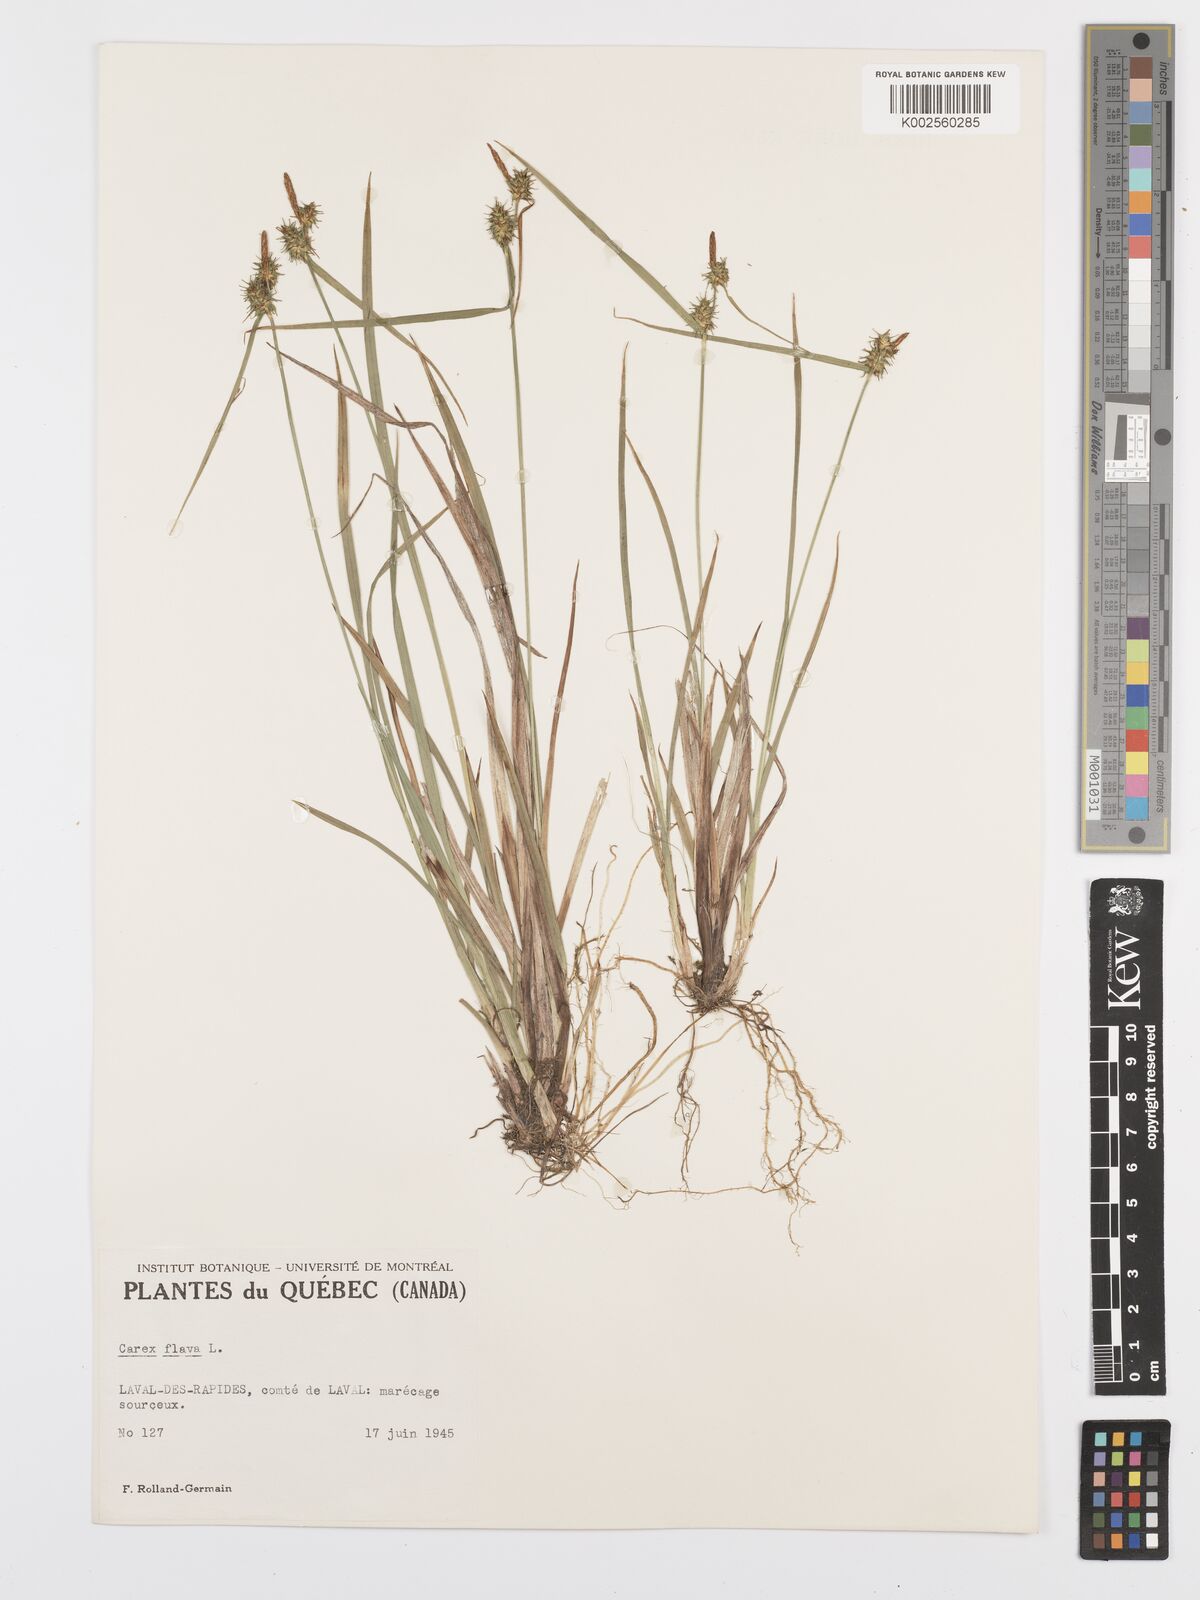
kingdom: Plantae
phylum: Tracheophyta
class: Liliopsida
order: Poales
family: Cyperaceae
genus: Carex
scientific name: Carex flava
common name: Large yellow-sedge
